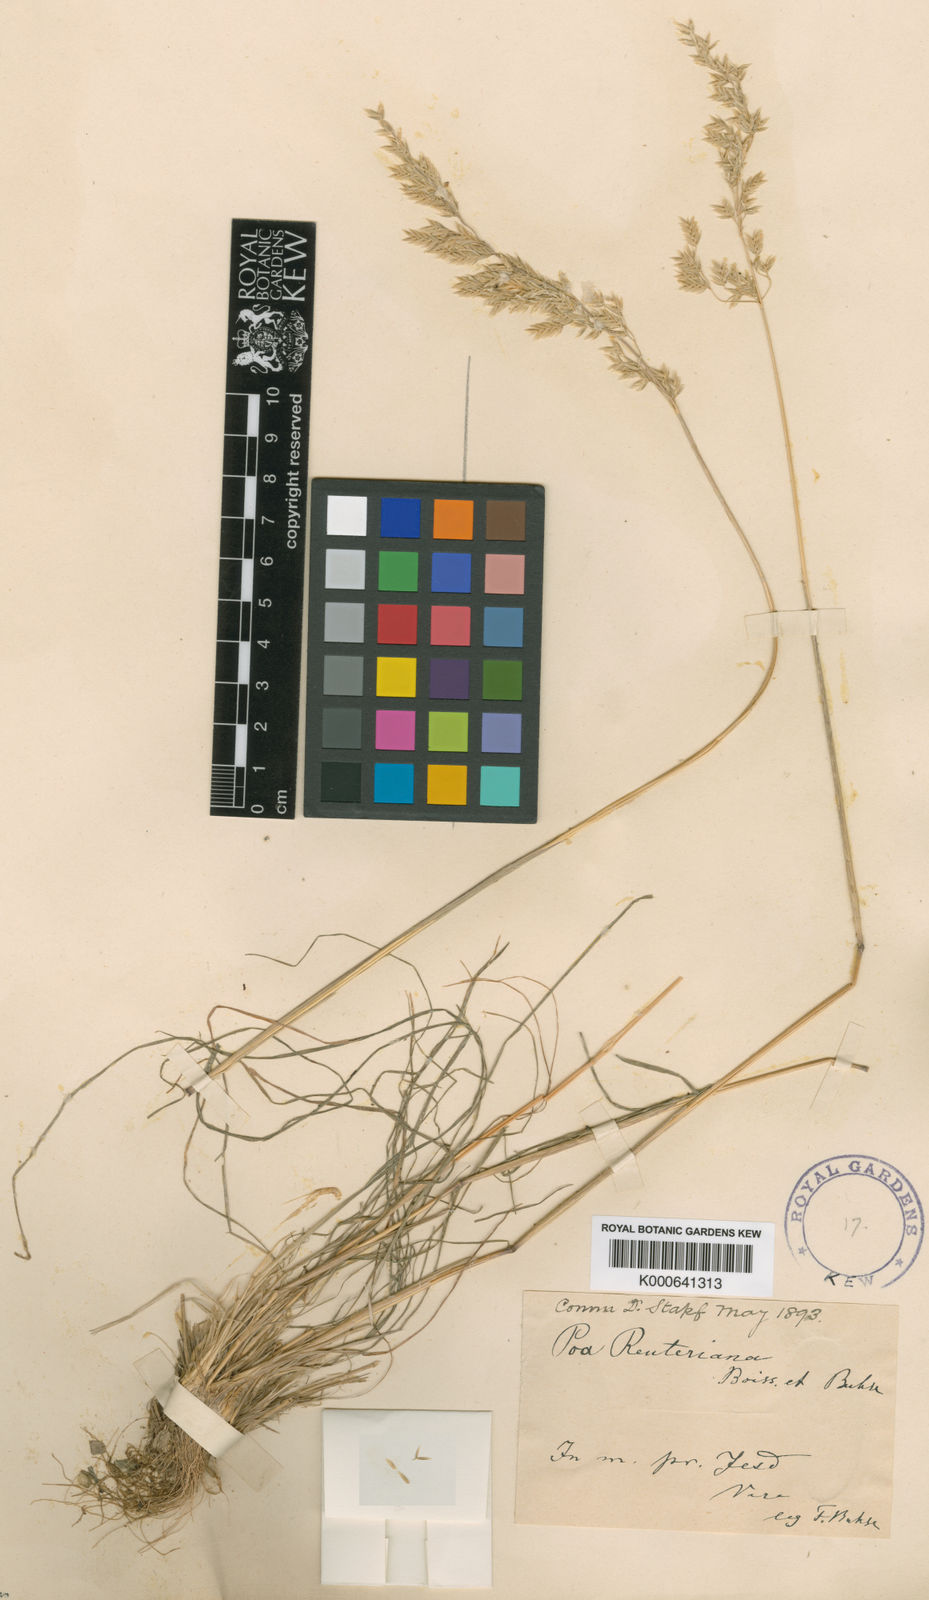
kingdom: Plantae
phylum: Tracheophyta
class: Liliopsida
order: Poales
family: Poaceae
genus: Poa
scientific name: Poa sinaica
